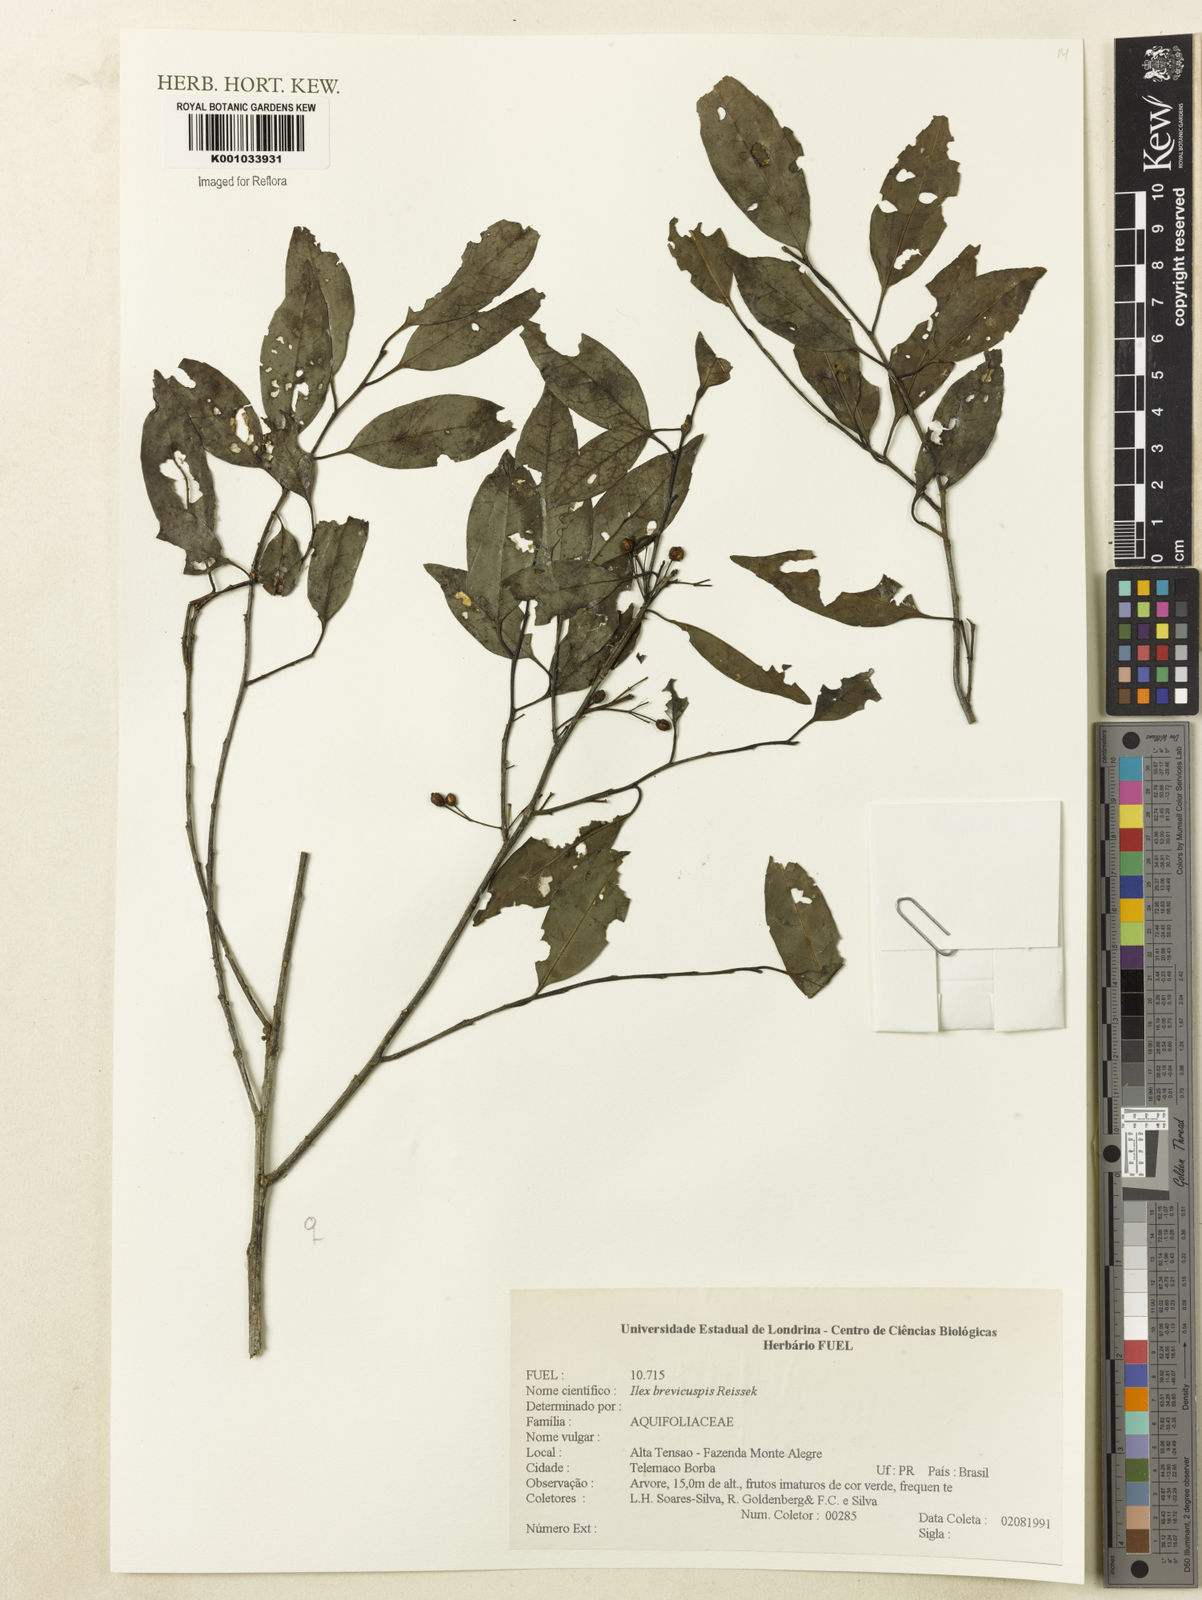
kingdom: Plantae
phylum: Tracheophyta
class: Magnoliopsida
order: Aquifoliales
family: Aquifoliaceae
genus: Ilex
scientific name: Ilex brevicuspis
